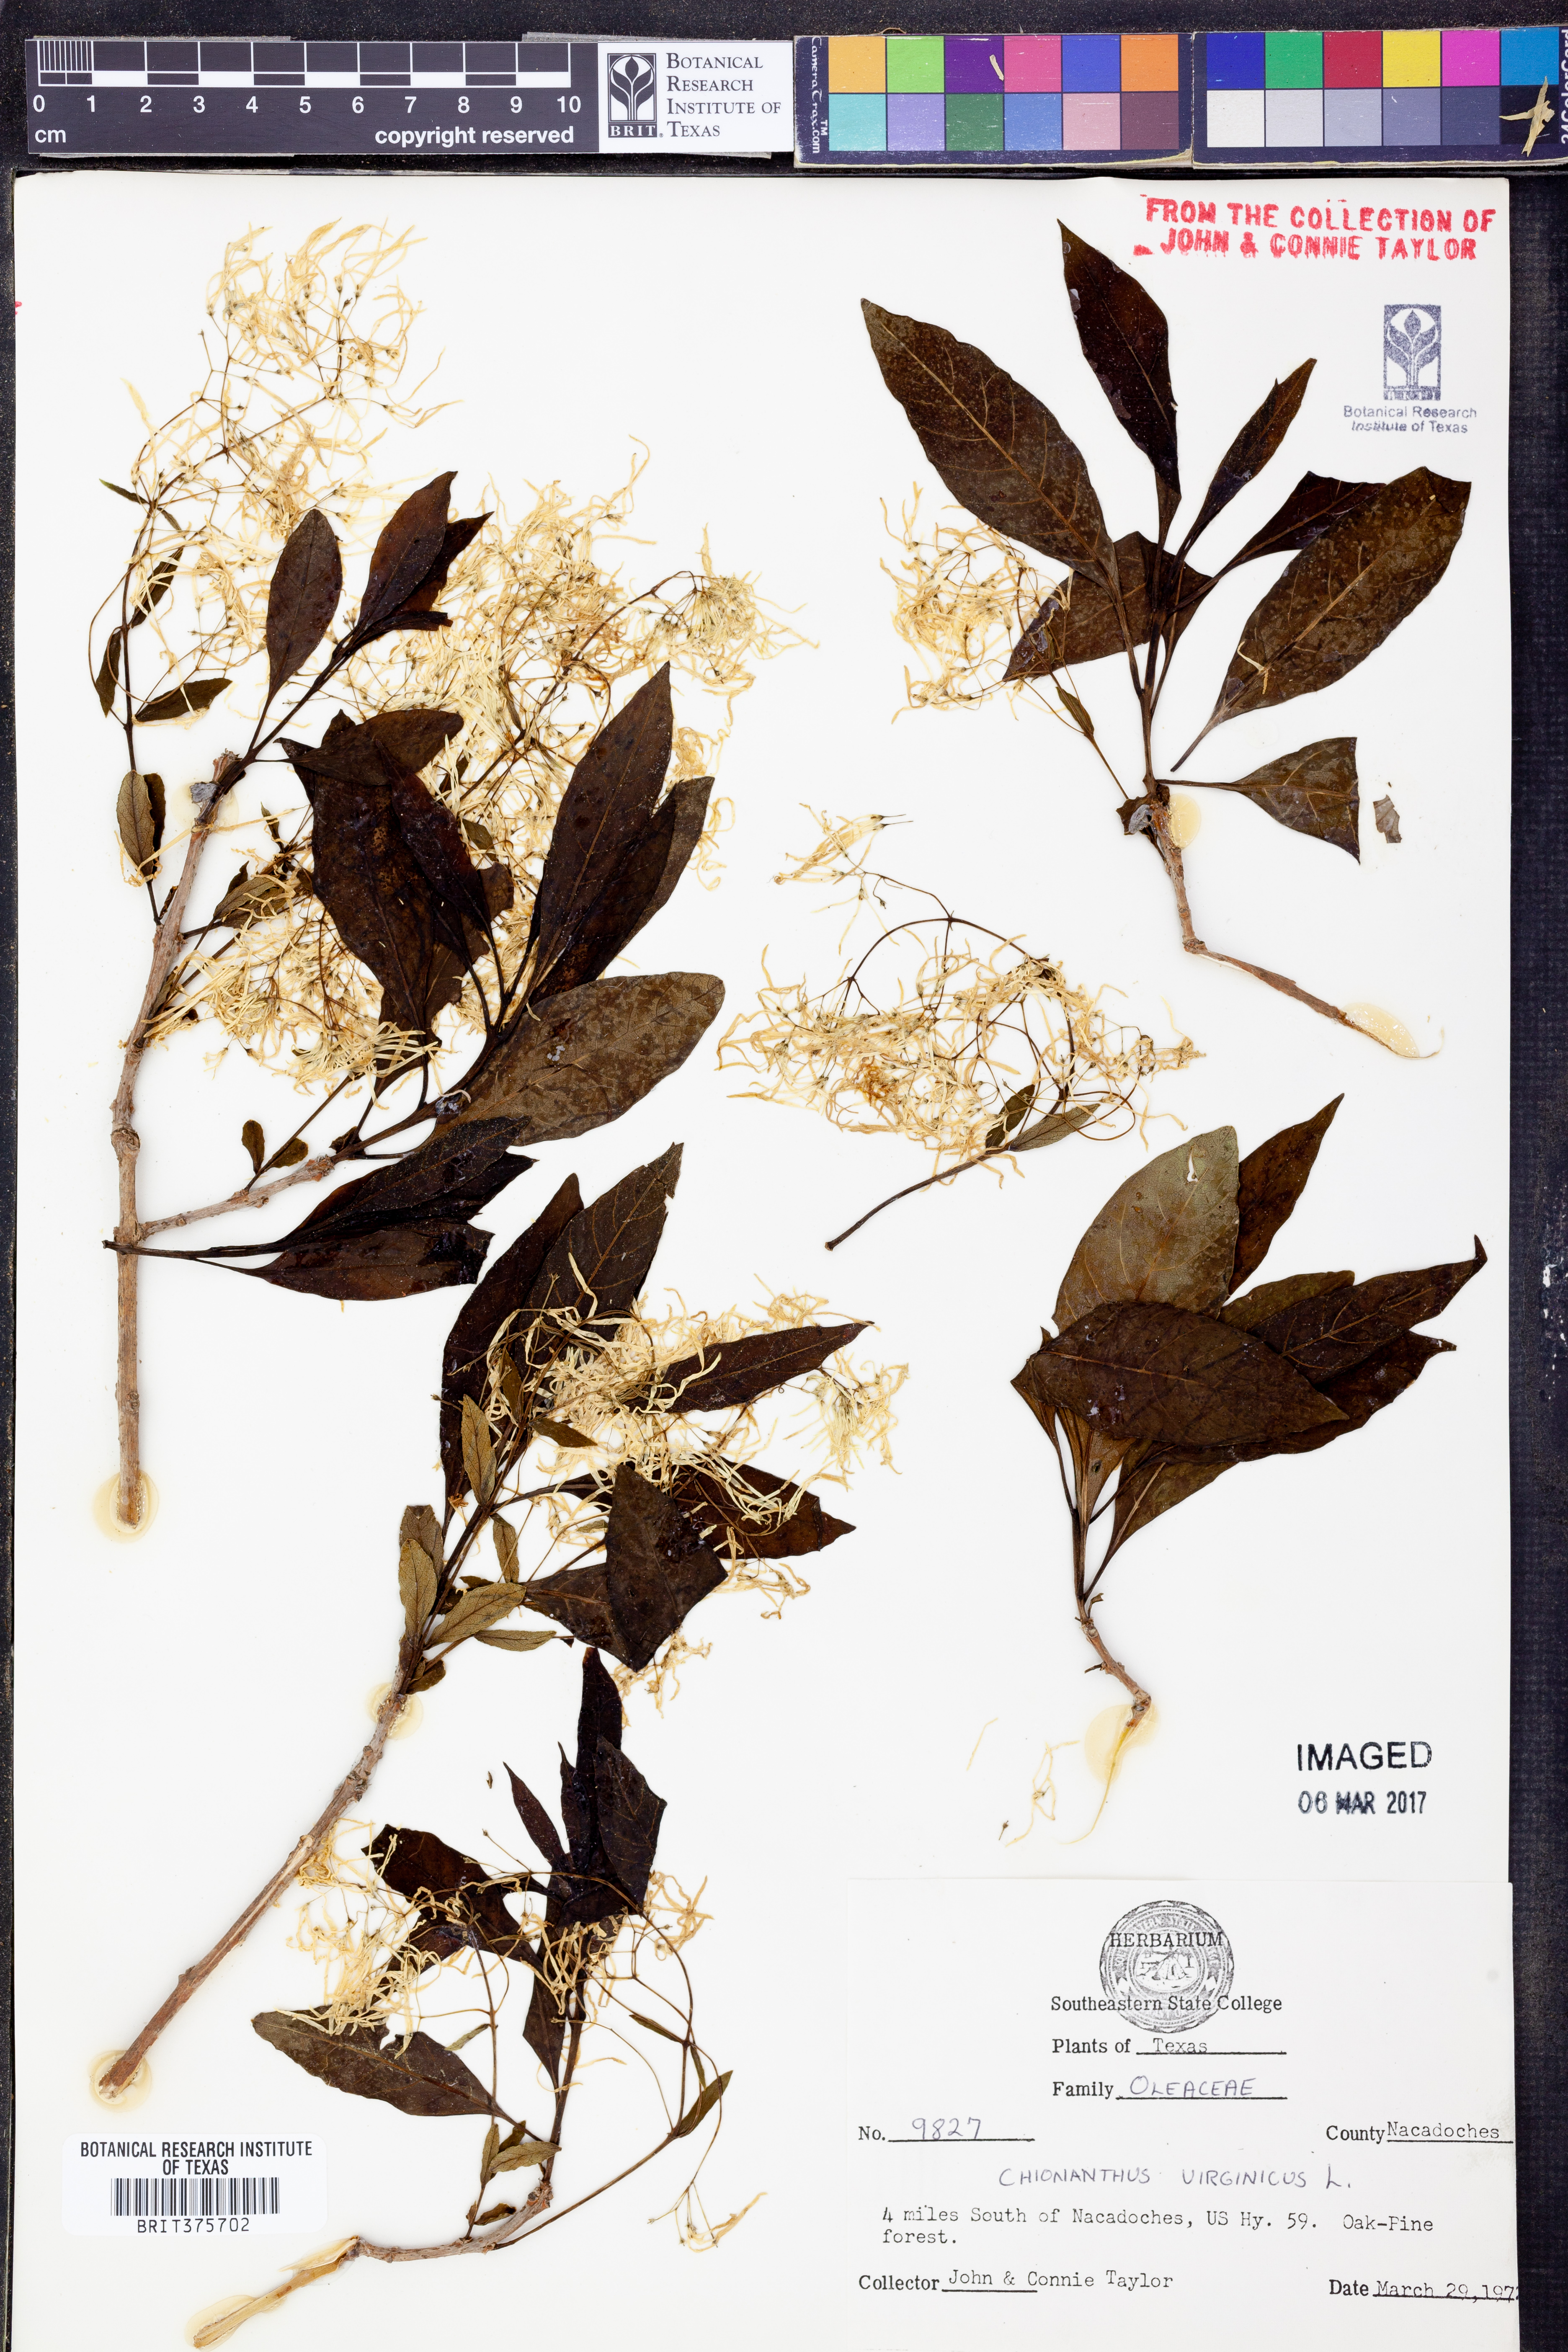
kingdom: Plantae
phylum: Tracheophyta
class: Magnoliopsida
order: Lamiales
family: Oleaceae
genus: Chionanthus
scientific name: Chionanthus virginicus
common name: American fringetree
